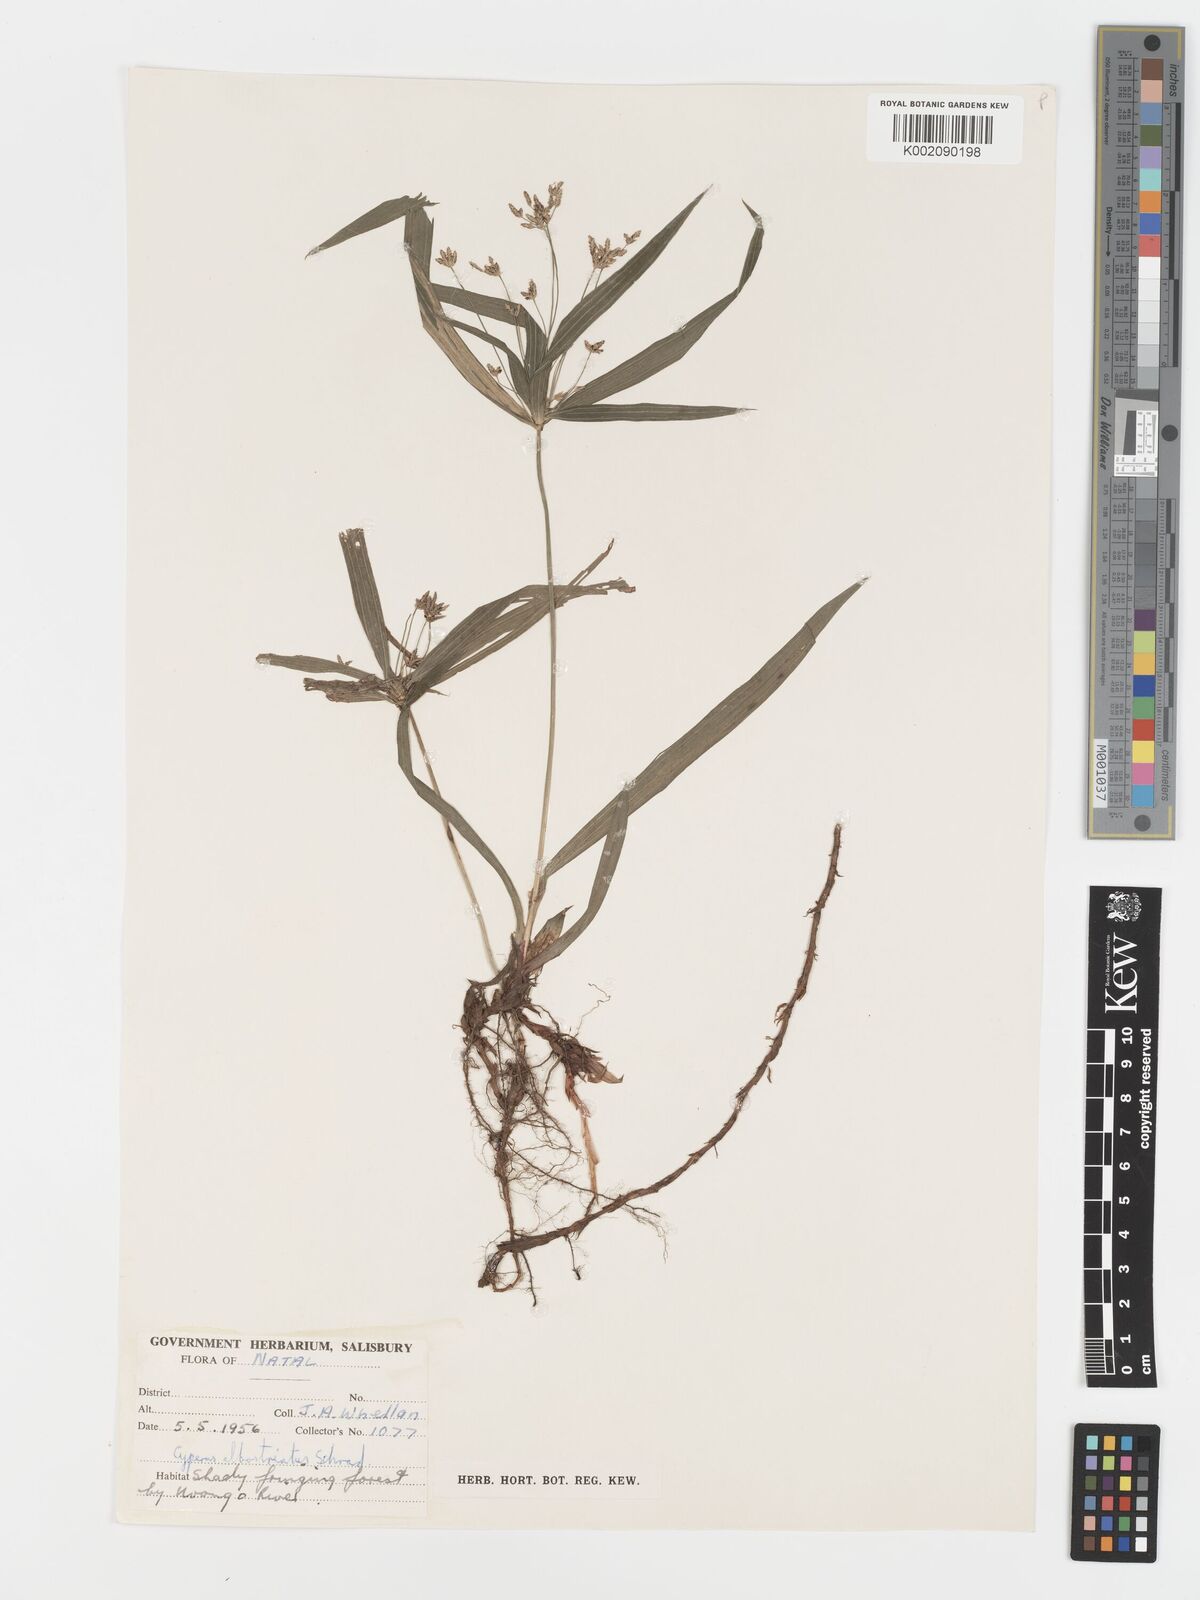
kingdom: Plantae
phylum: Tracheophyta
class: Liliopsida
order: Poales
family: Cyperaceae
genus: Cyperus
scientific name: Cyperus albostriatus
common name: Dwarf umbrella-grass
